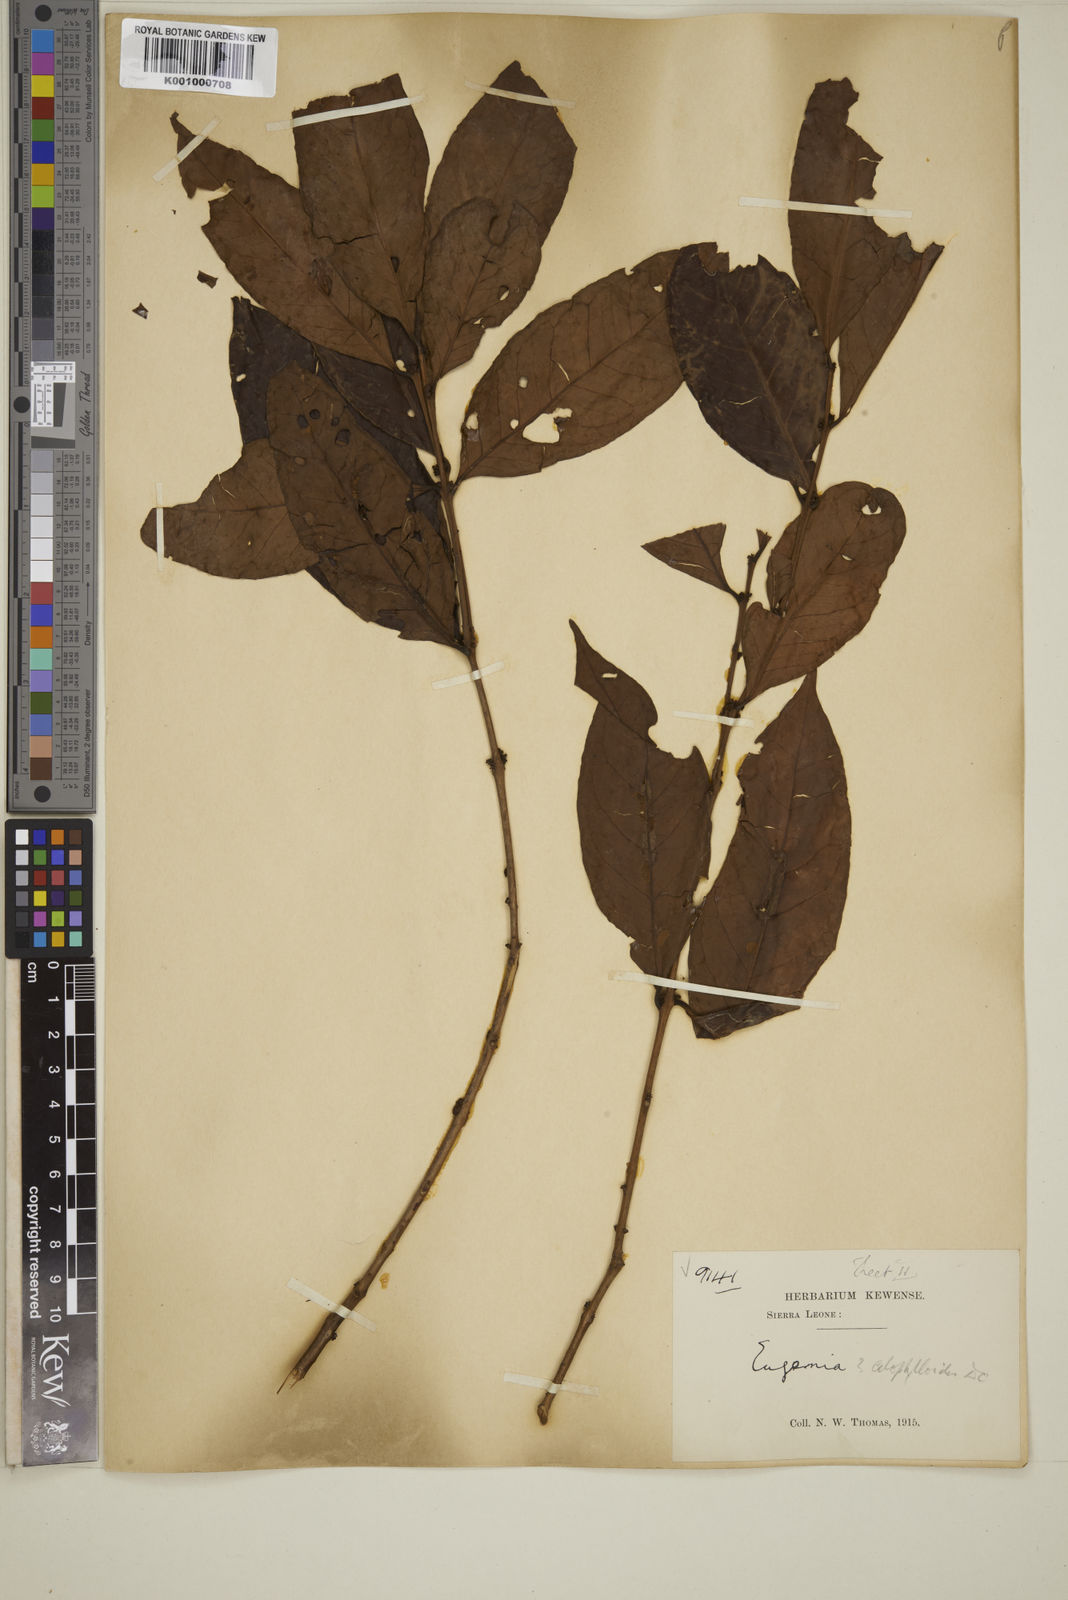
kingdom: Plantae
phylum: Tracheophyta
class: Magnoliopsida
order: Myrtales
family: Myrtaceae
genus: Eugenia
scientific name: Eugenia calophylloides
